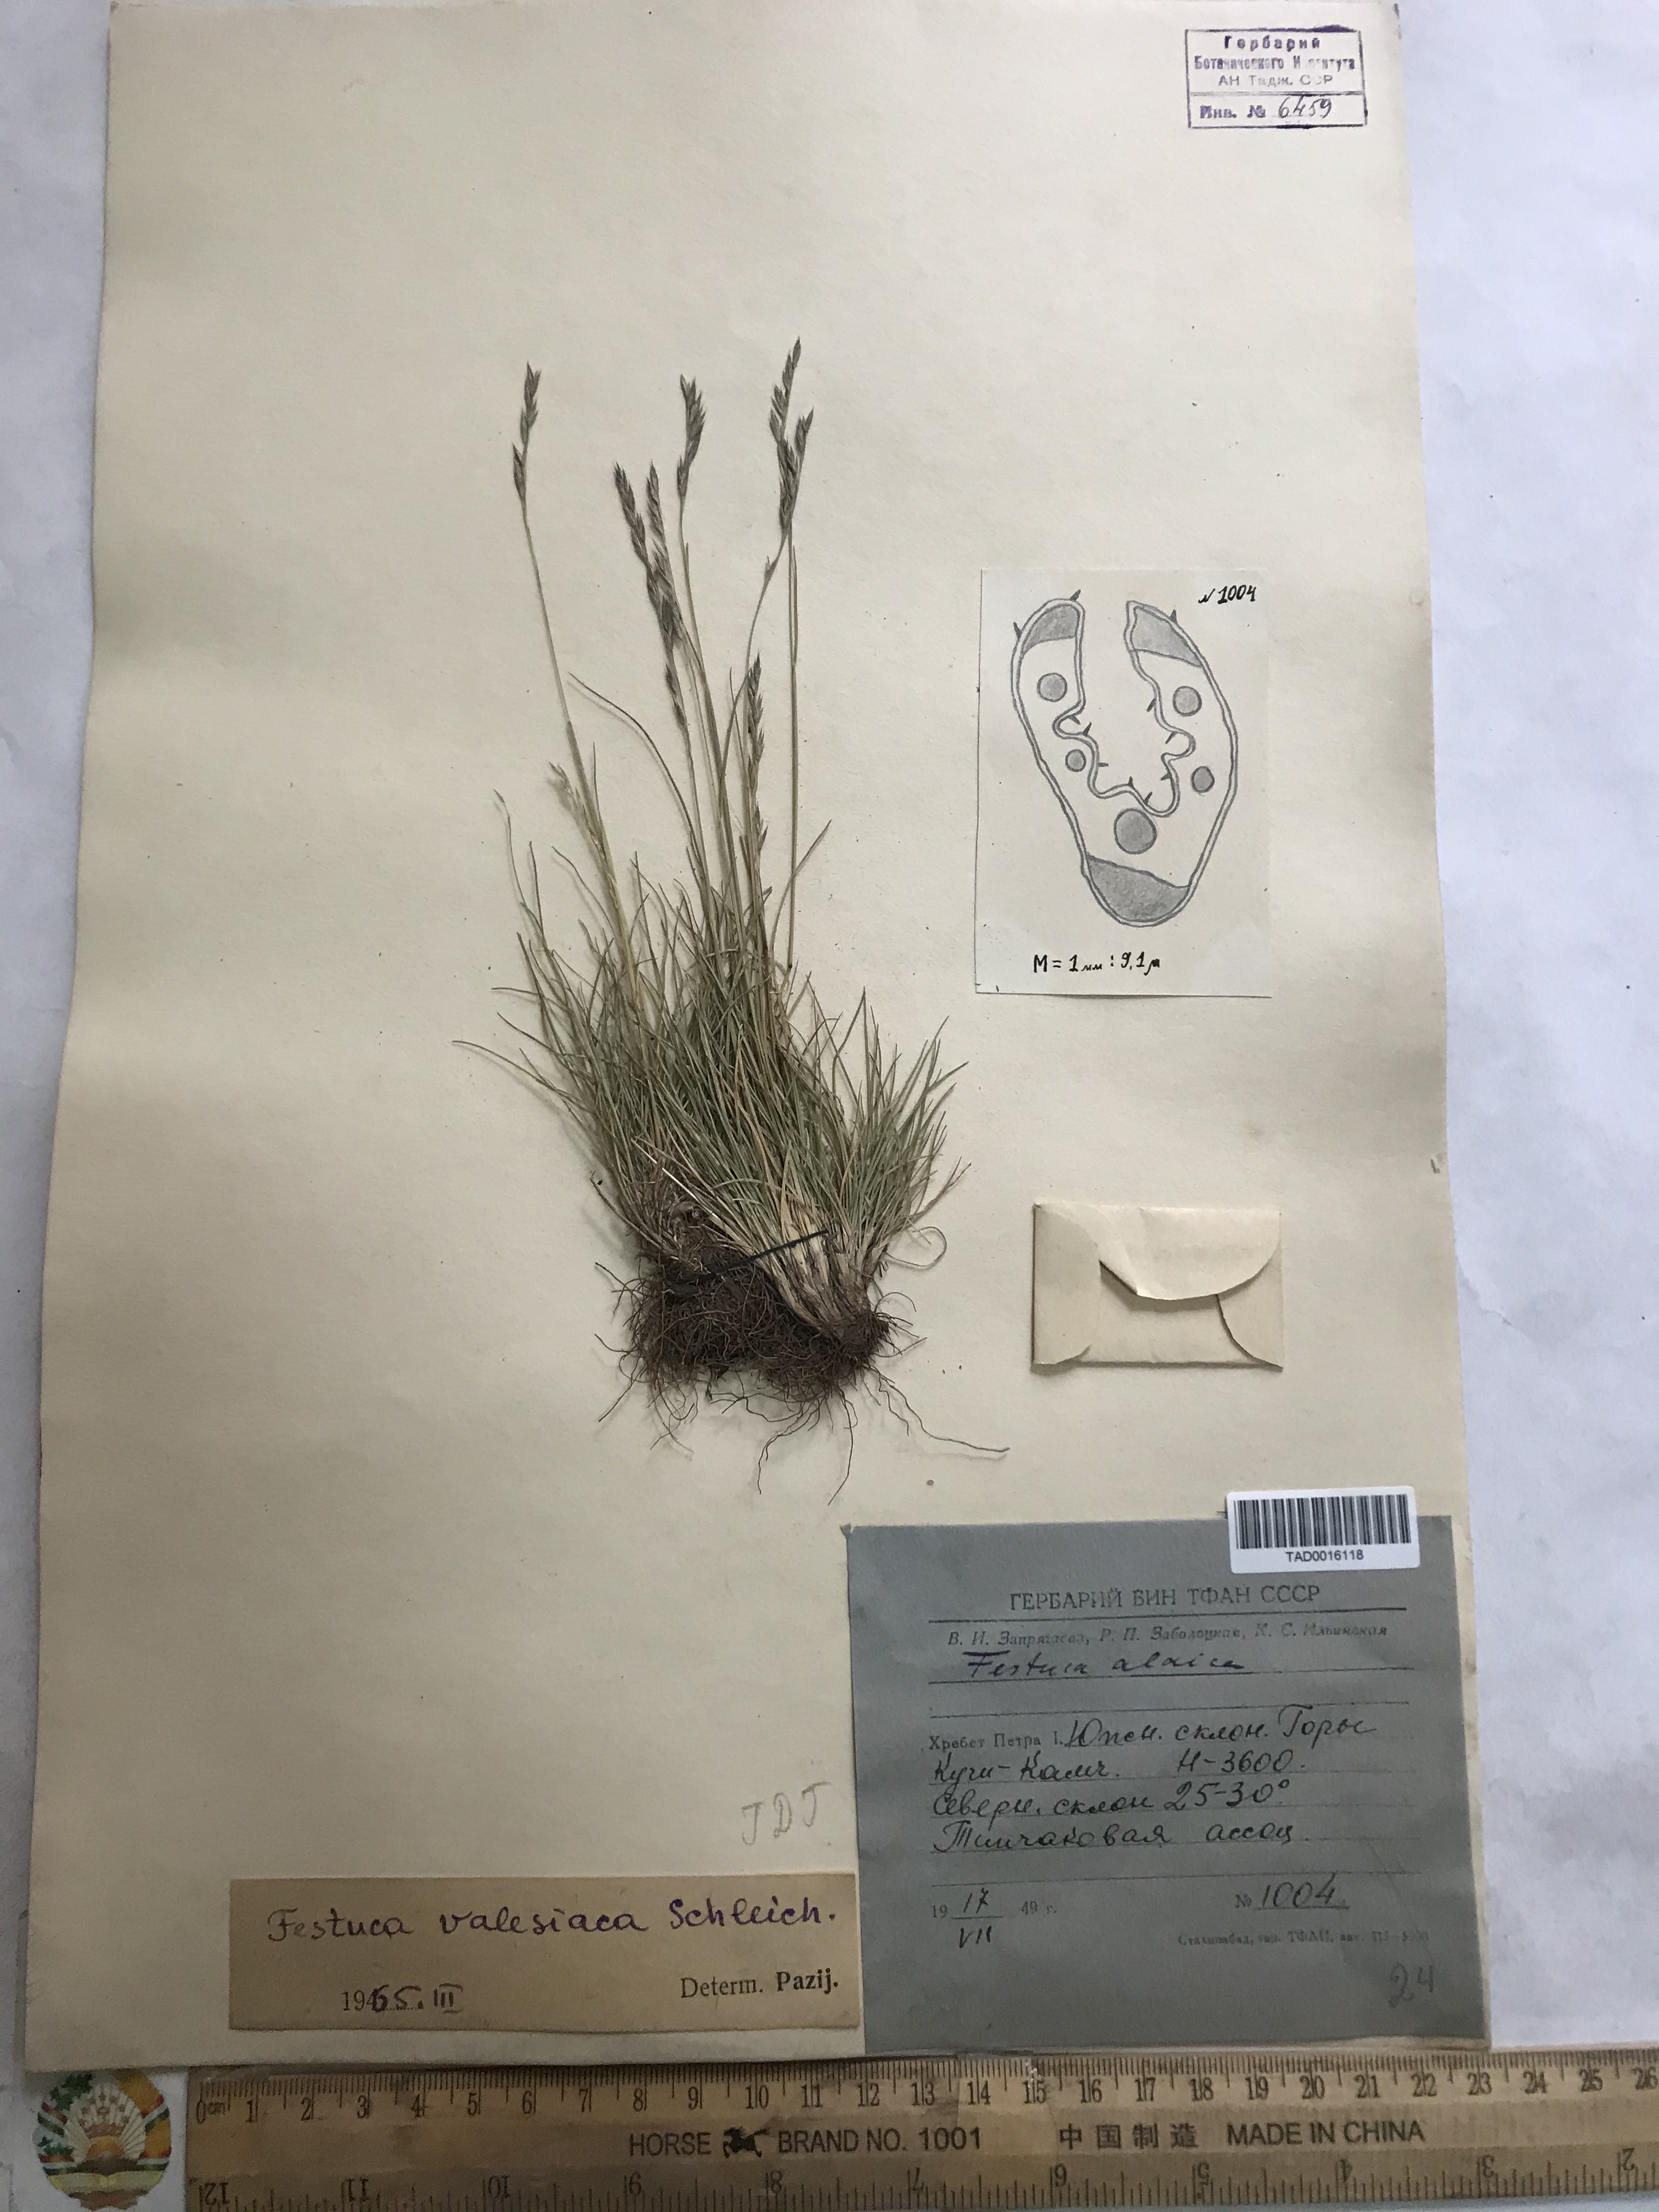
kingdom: Plantae
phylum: Tracheophyta
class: Liliopsida
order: Poales
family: Poaceae
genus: Festuca
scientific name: Festuca valesiaca
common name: Volga fescue
